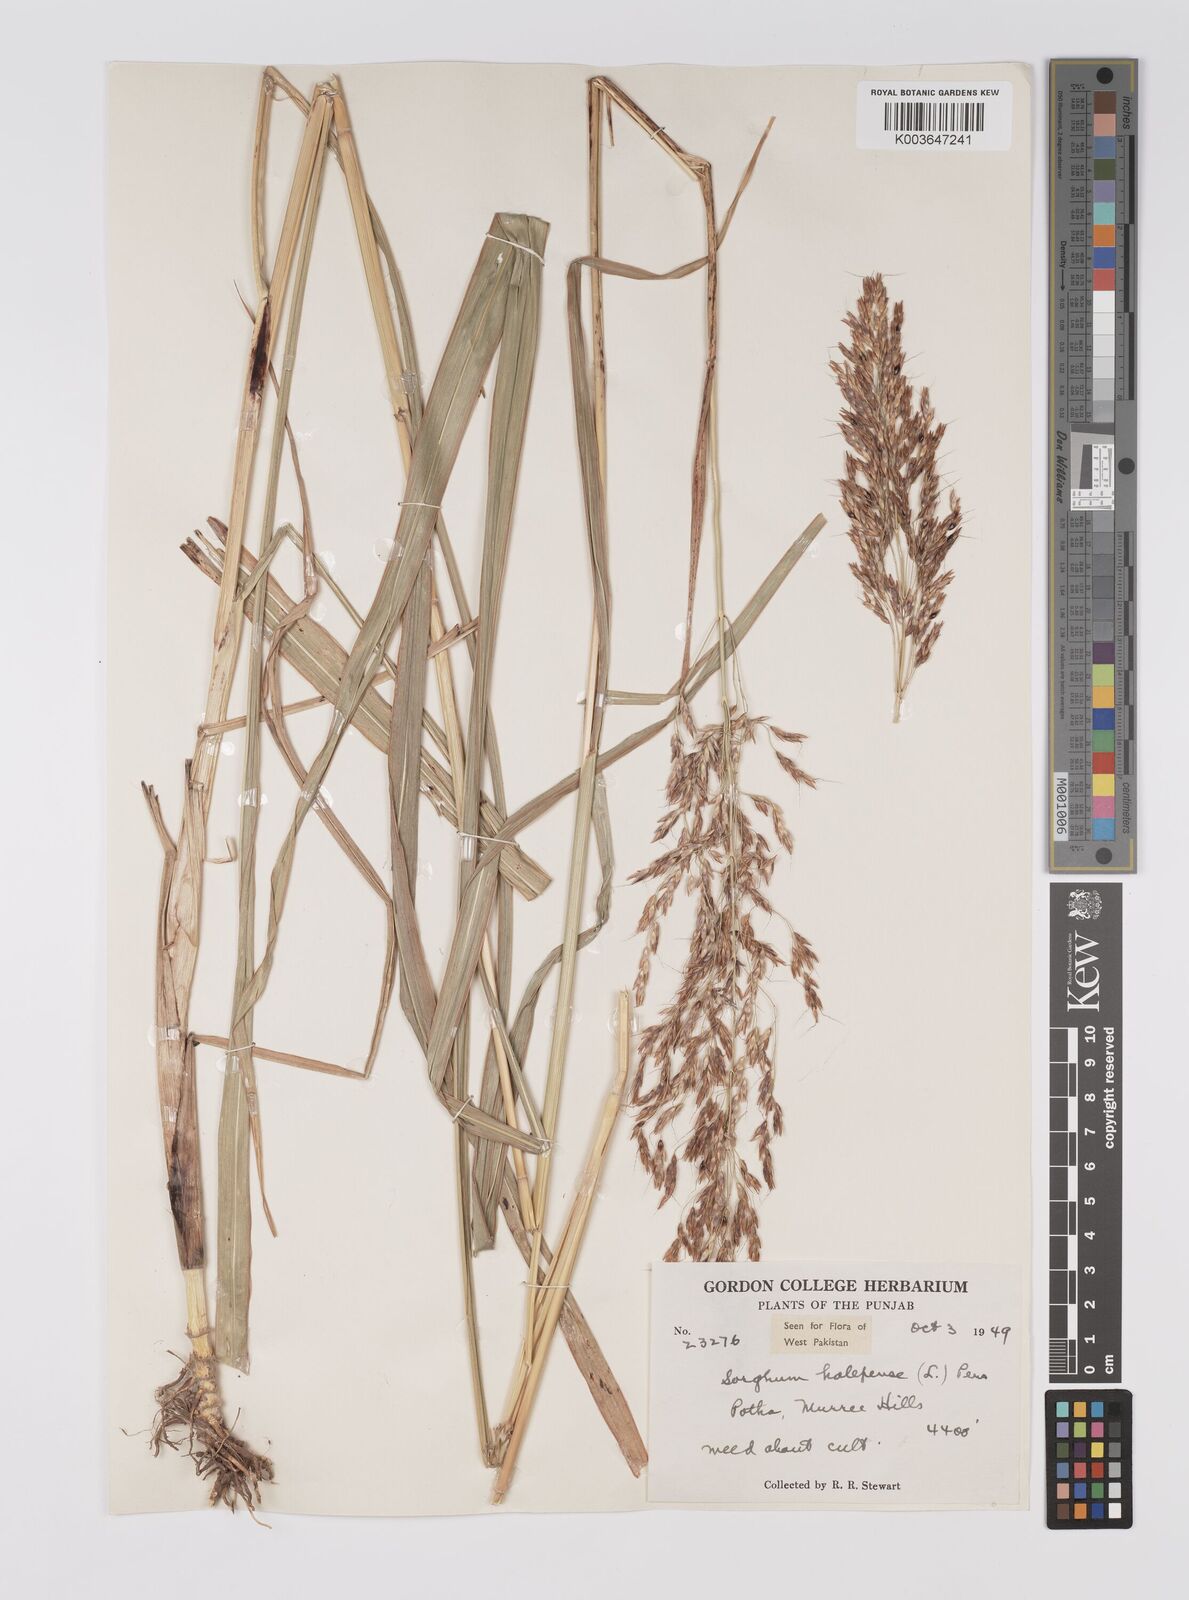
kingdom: Plantae
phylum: Tracheophyta
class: Liliopsida
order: Poales
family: Poaceae
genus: Sorghum
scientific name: Sorghum halepense
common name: Johnson-grass
